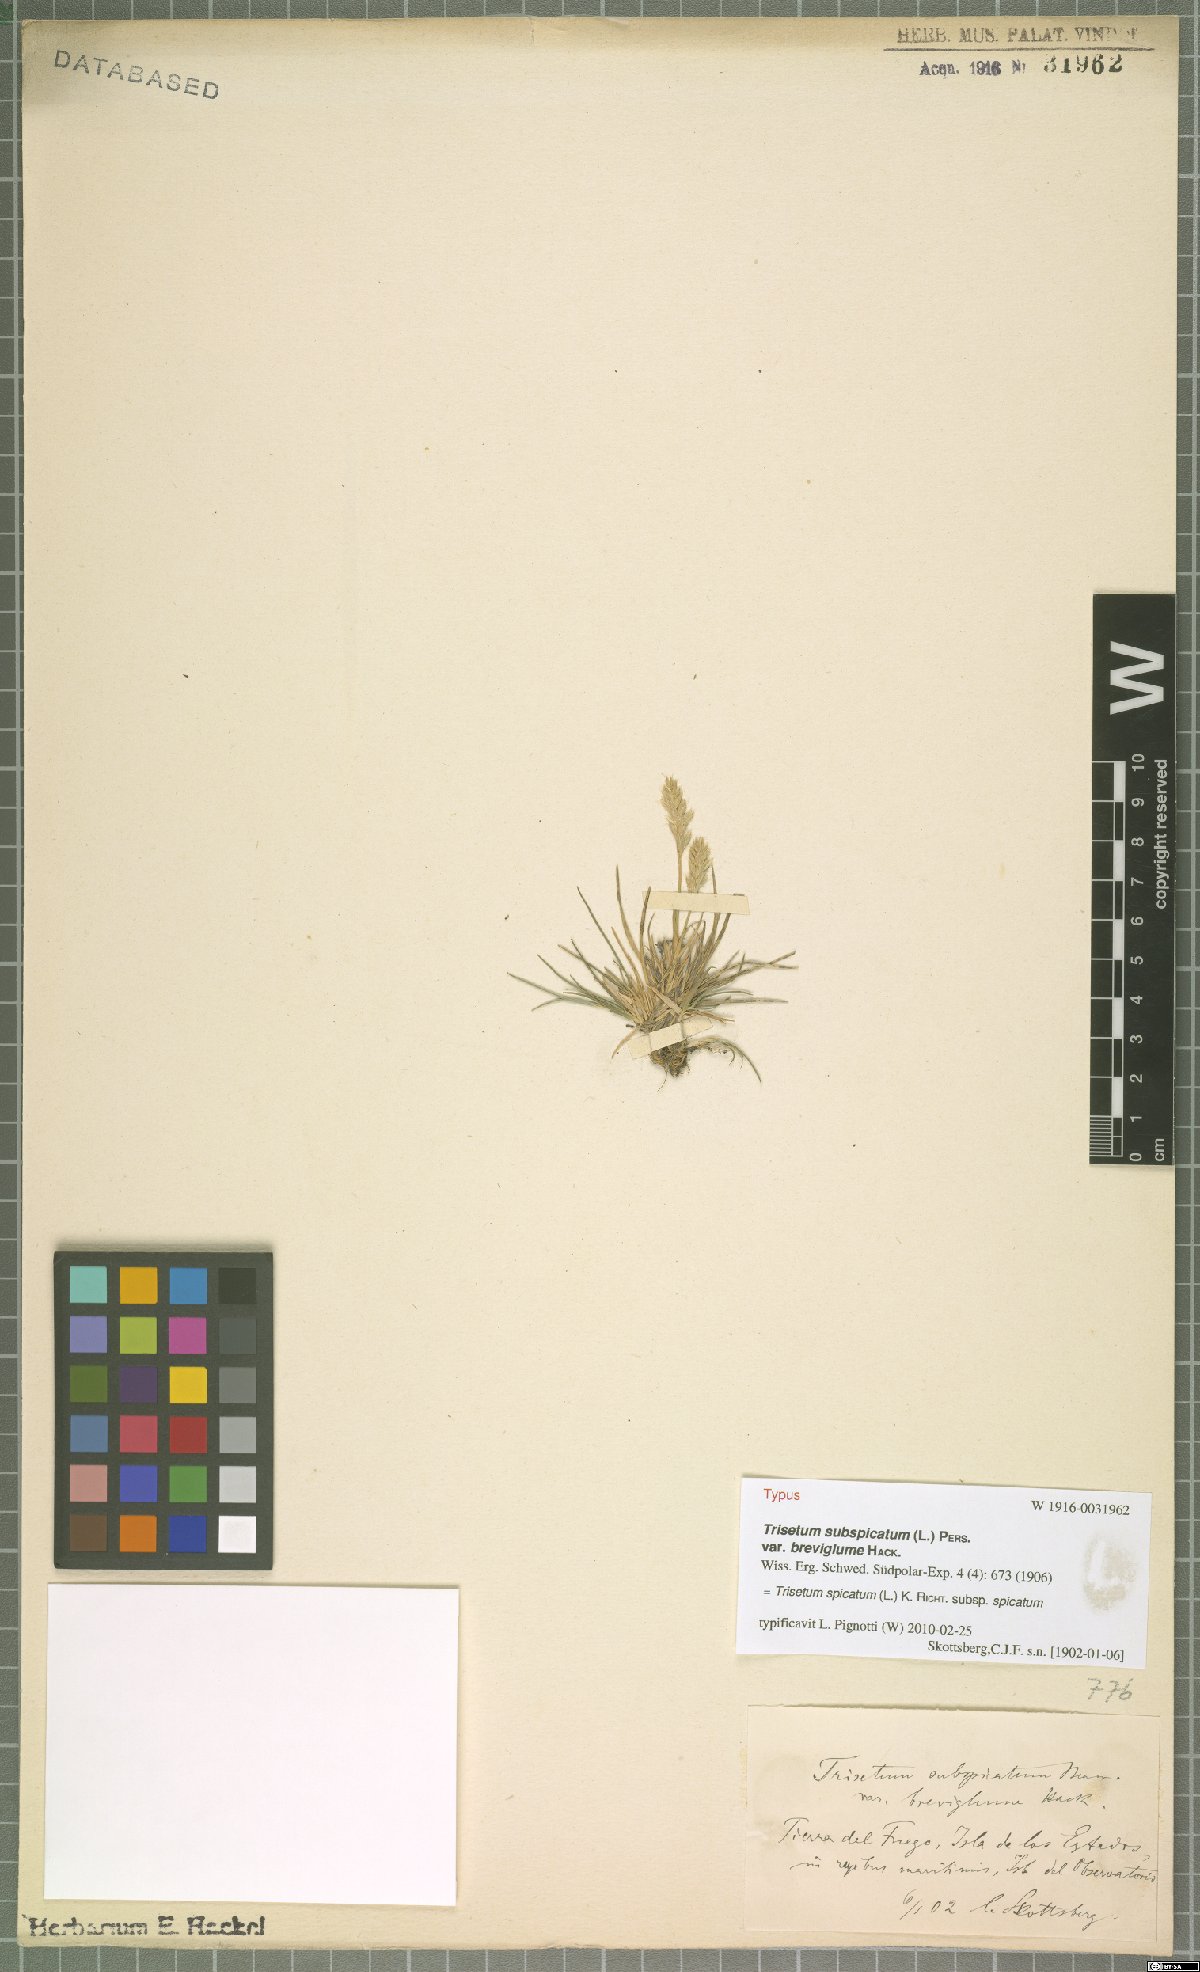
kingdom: Plantae
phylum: Tracheophyta
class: Liliopsida
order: Poales
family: Poaceae
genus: Koeleria
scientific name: Koeleria spicata
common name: Mountain trisetum
